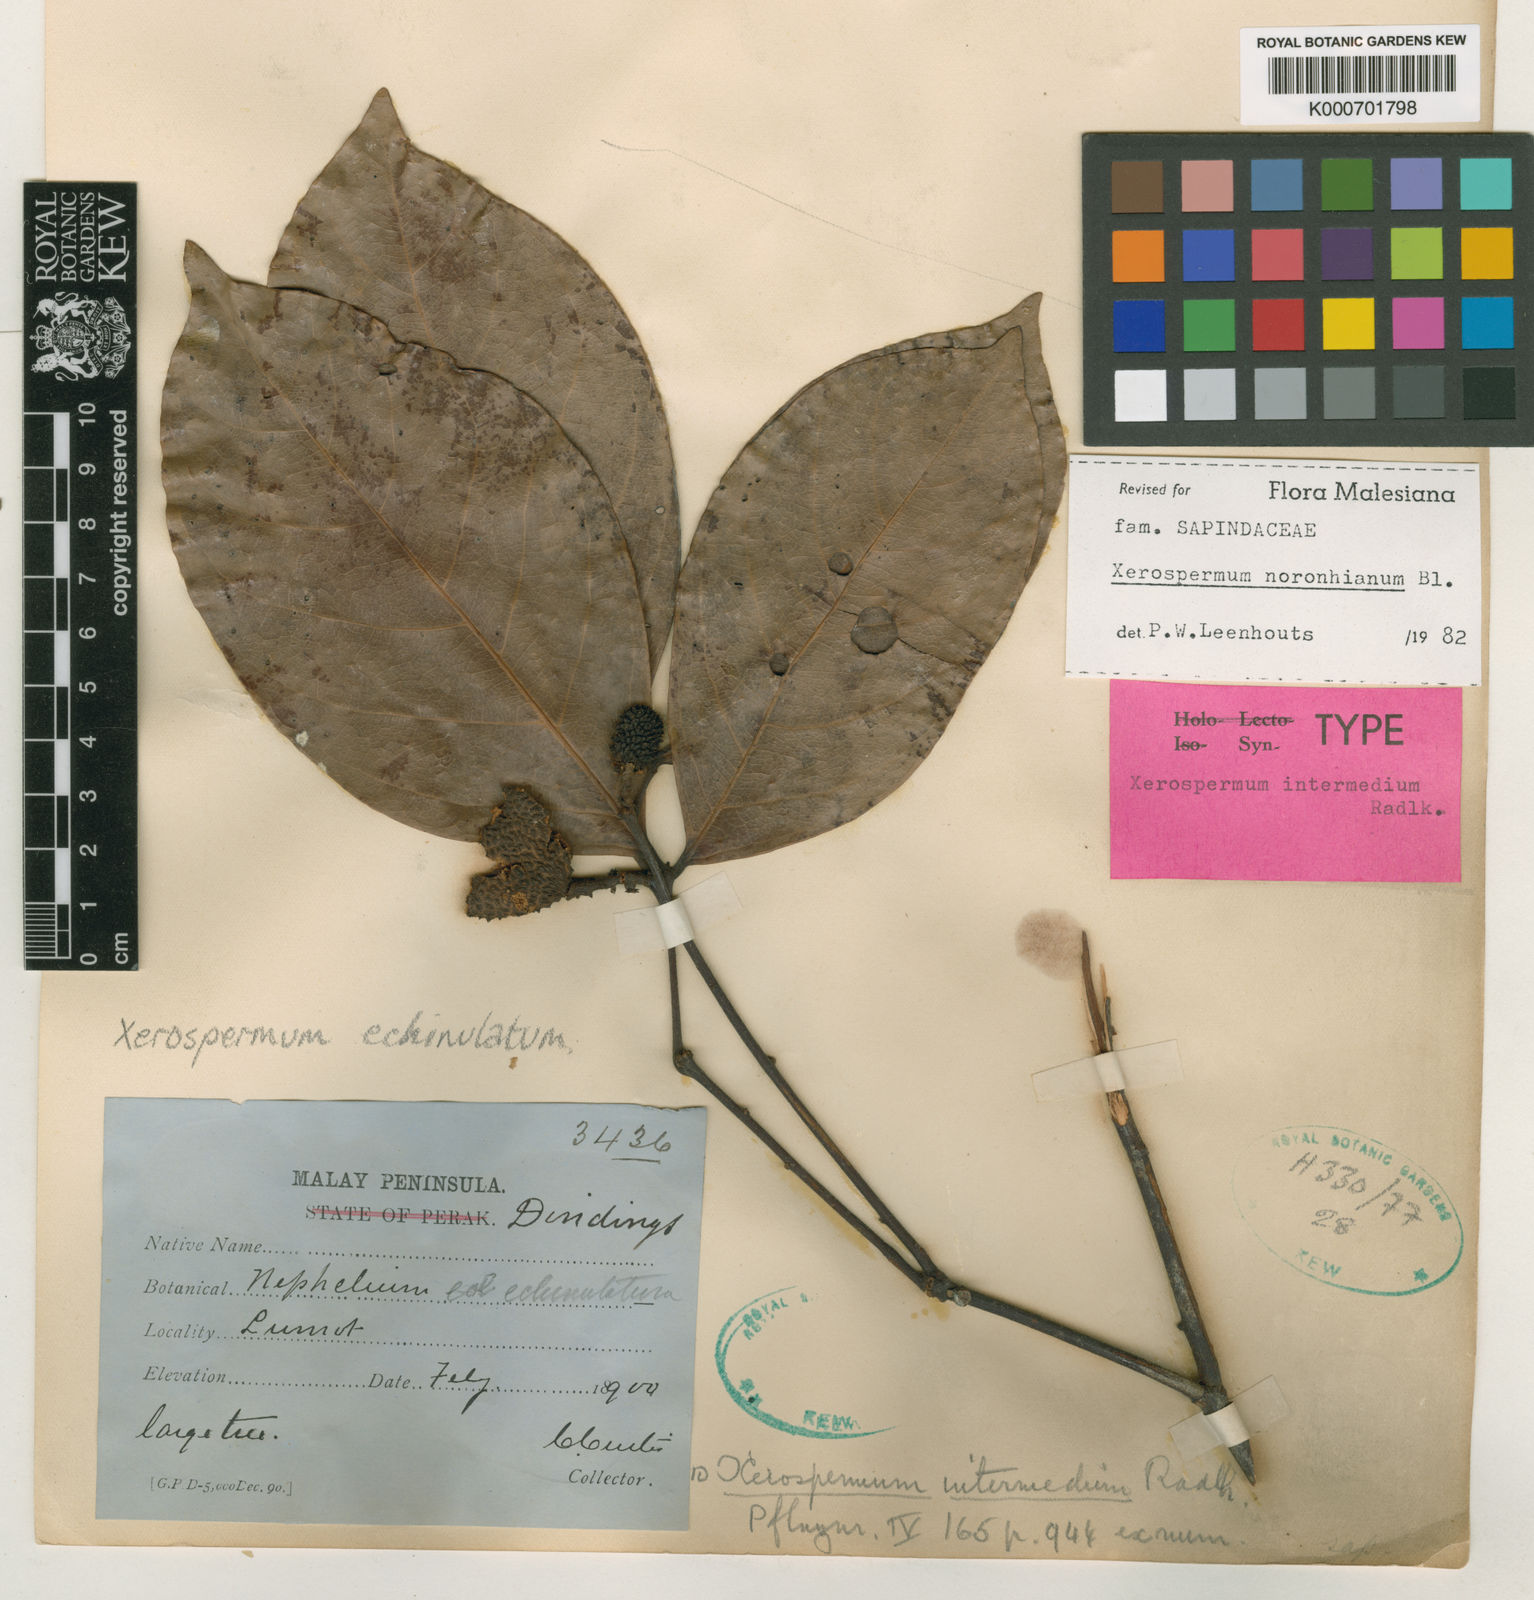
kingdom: Plantae
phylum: Tracheophyta
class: Magnoliopsida
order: Sapindales
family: Sapindaceae
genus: Xerospermum
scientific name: Xerospermum noronhianum
